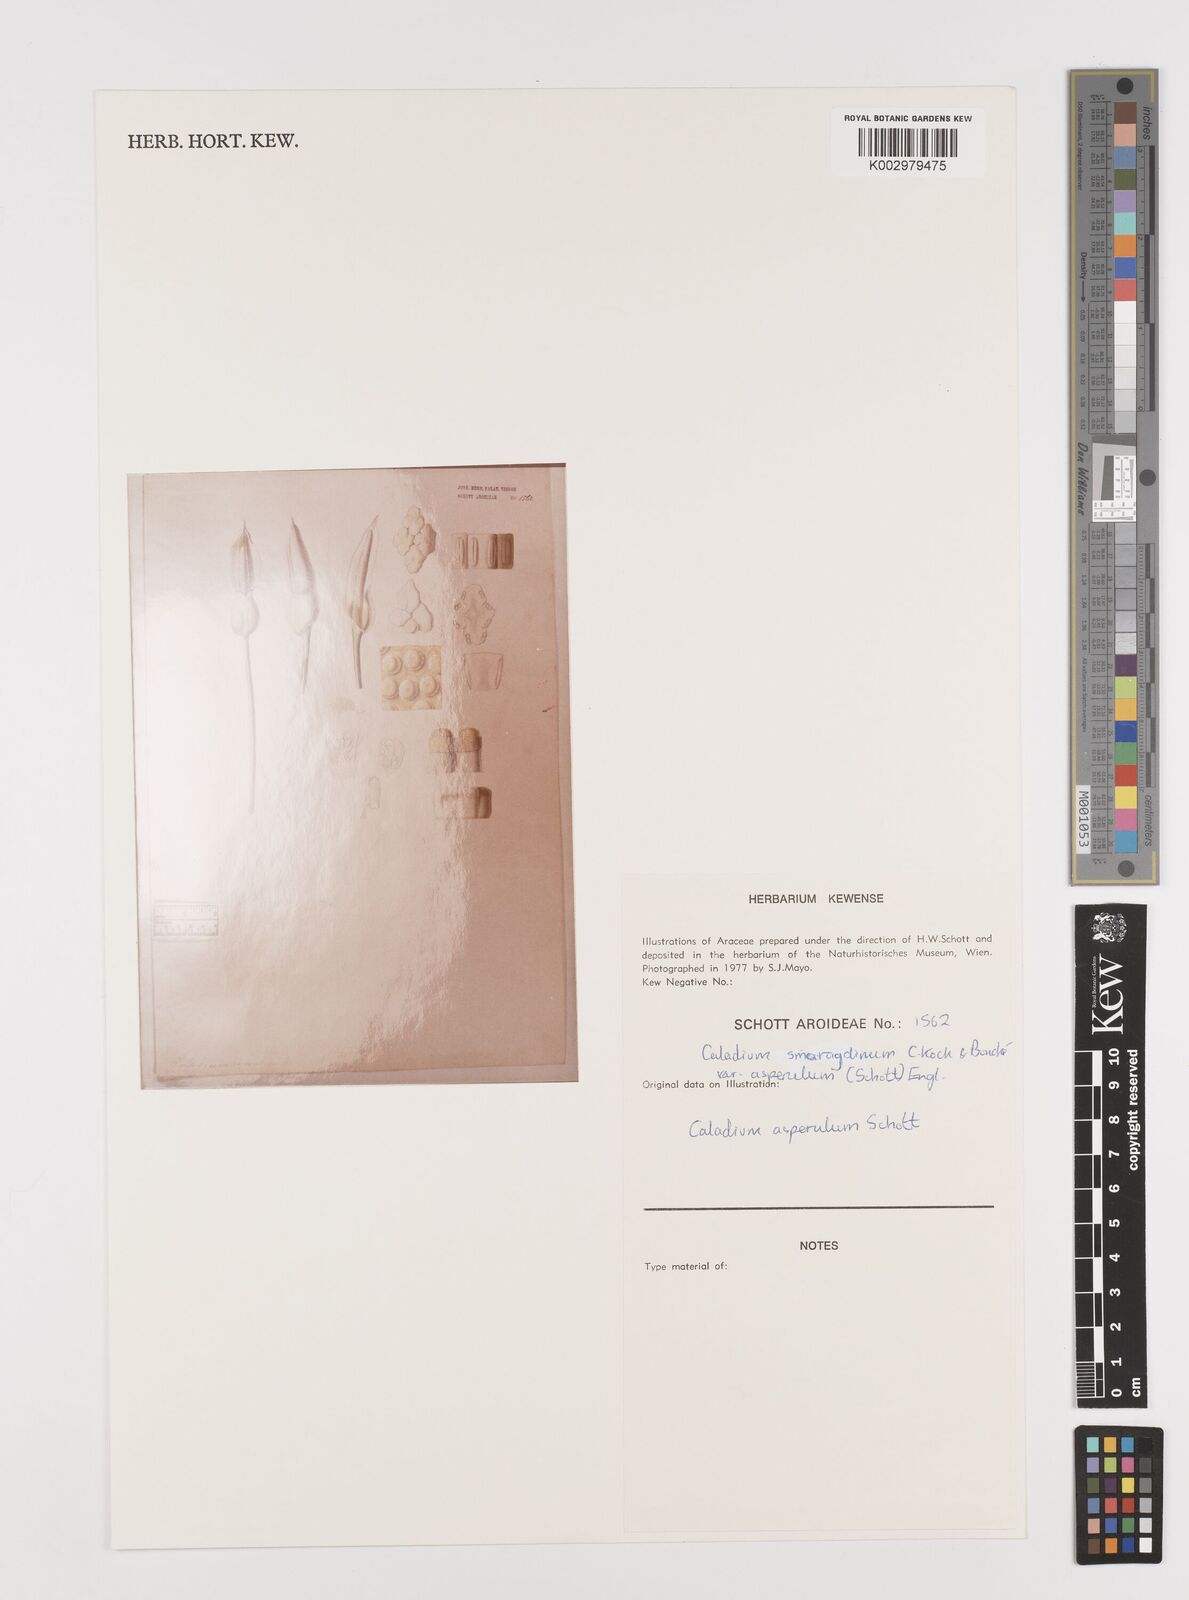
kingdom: Plantae
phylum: Tracheophyta
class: Liliopsida
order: Alismatales
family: Araceae
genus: Caladium
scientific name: Caladium smaragdinum
